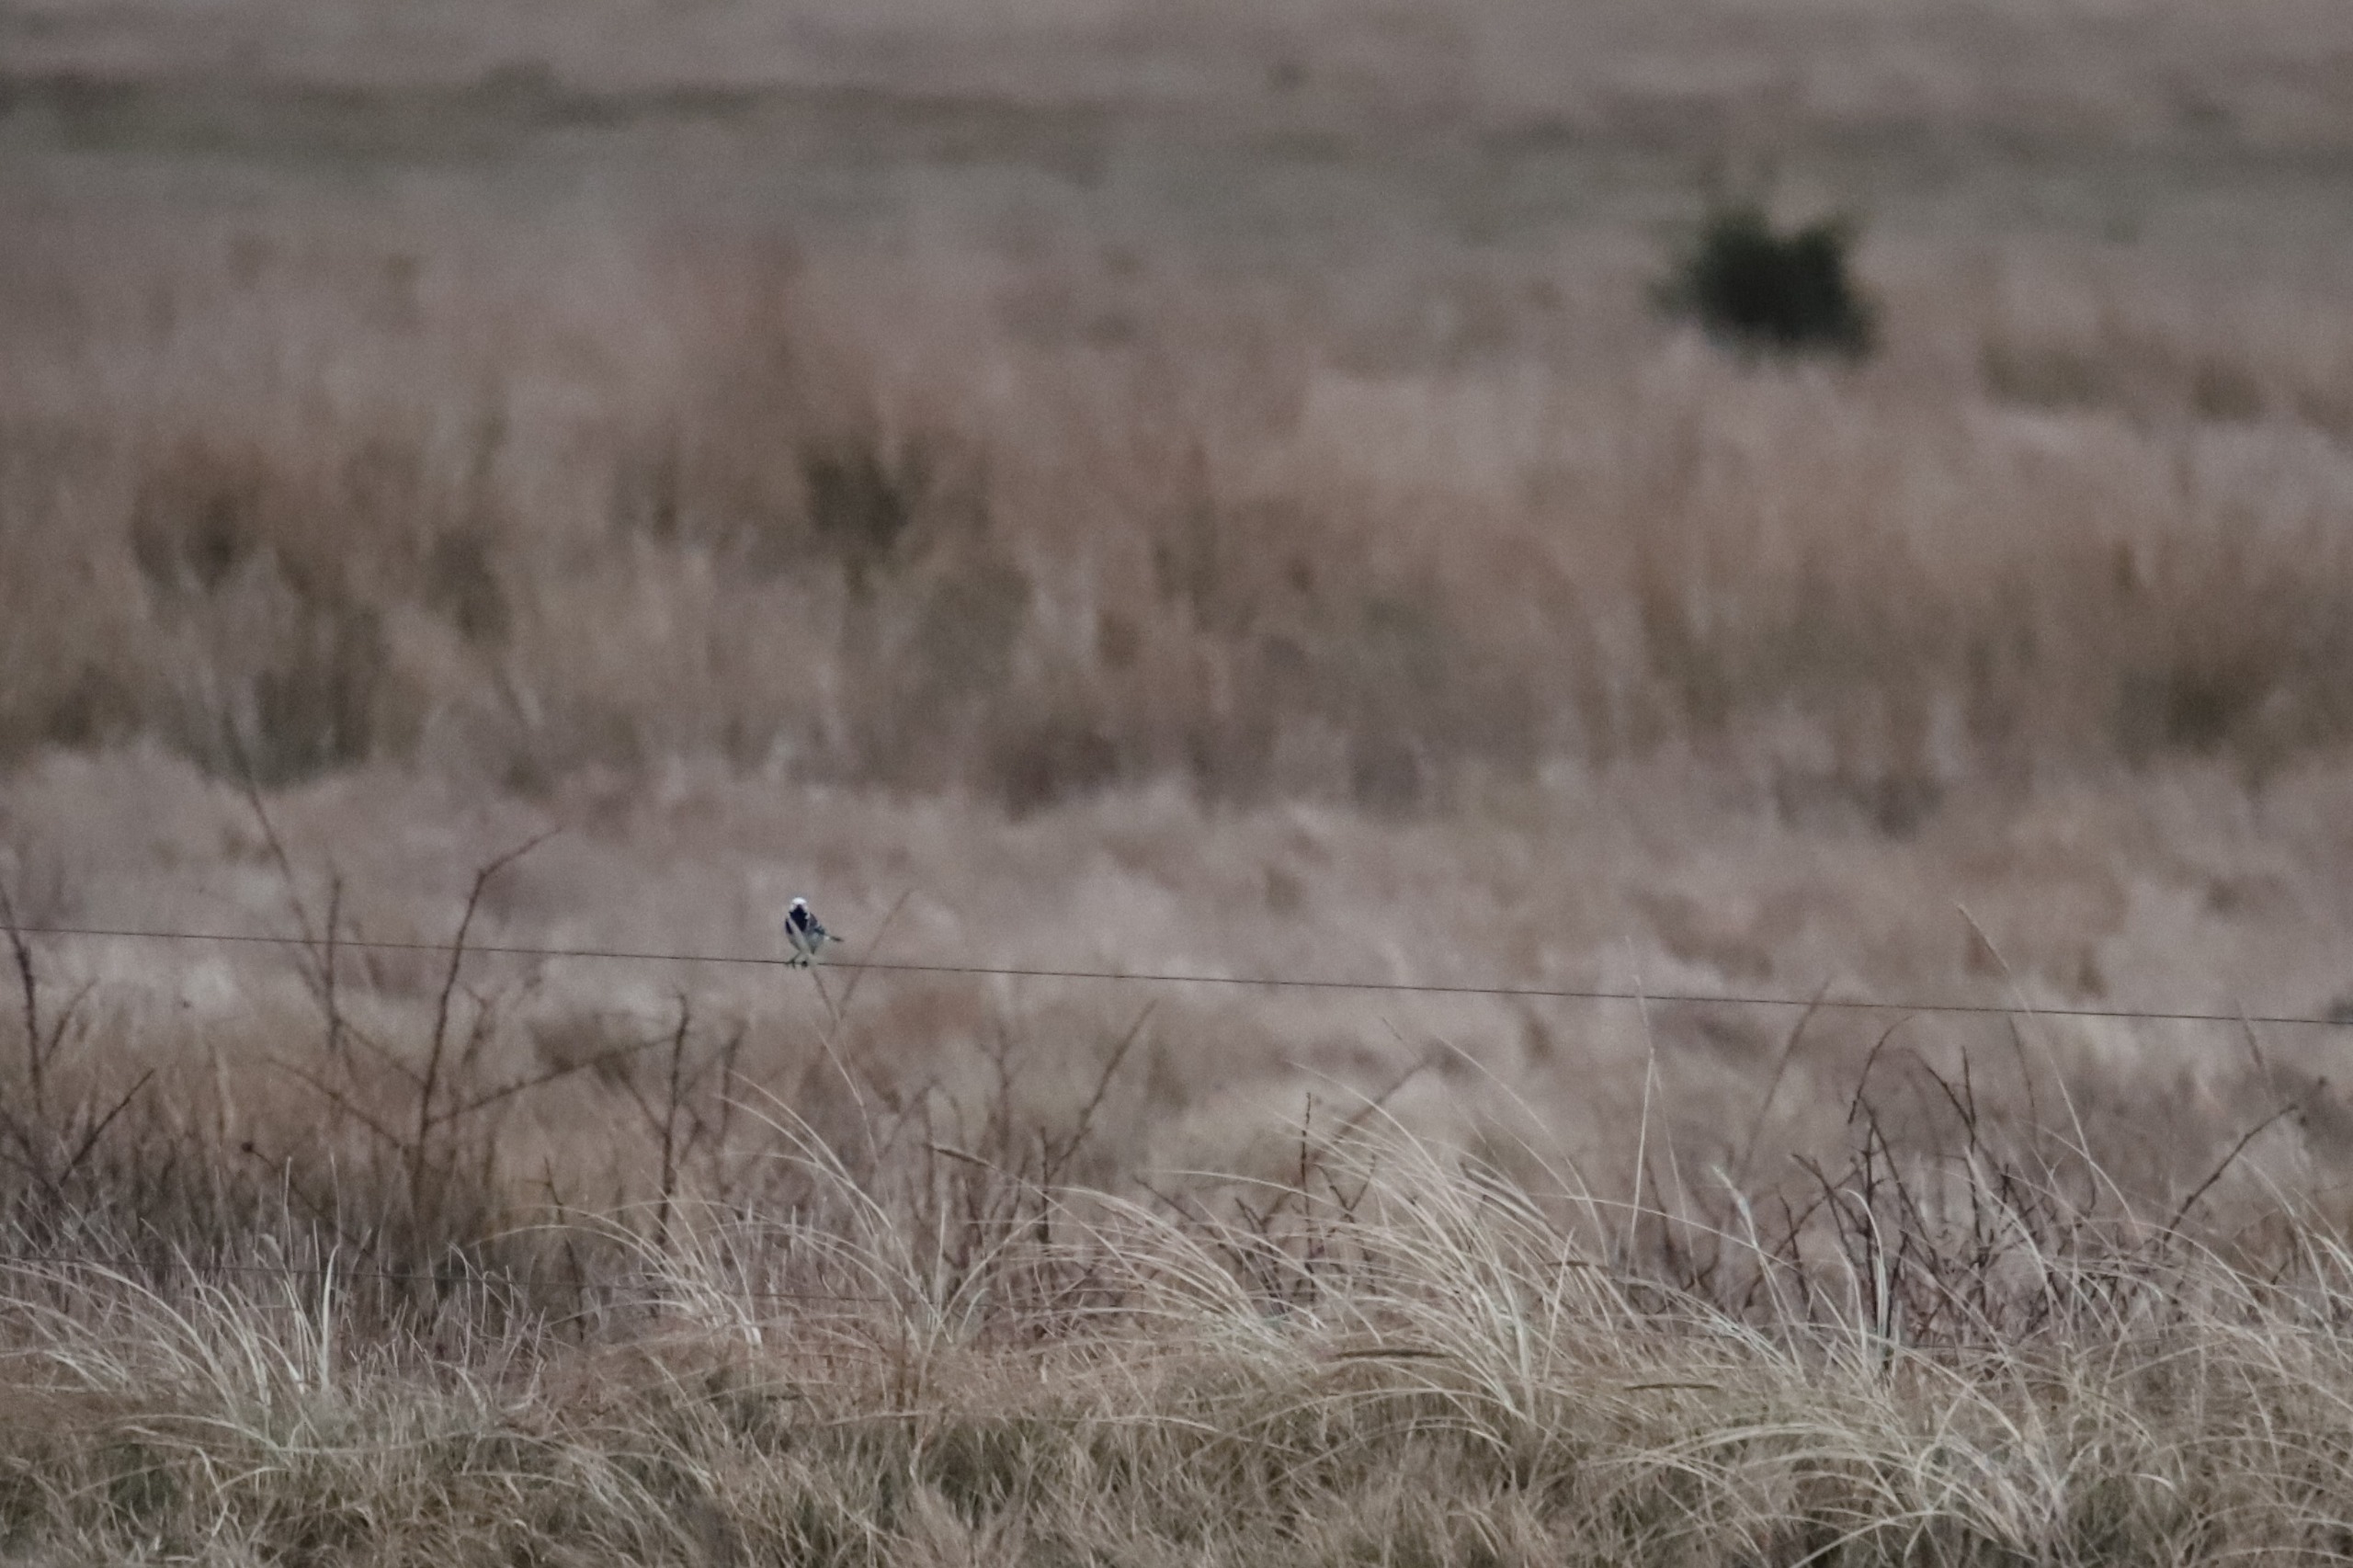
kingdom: Animalia
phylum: Chordata
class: Aves
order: Passeriformes
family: Motacillidae
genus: Motacilla
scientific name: Motacilla alba
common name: Hvid vipstjert
